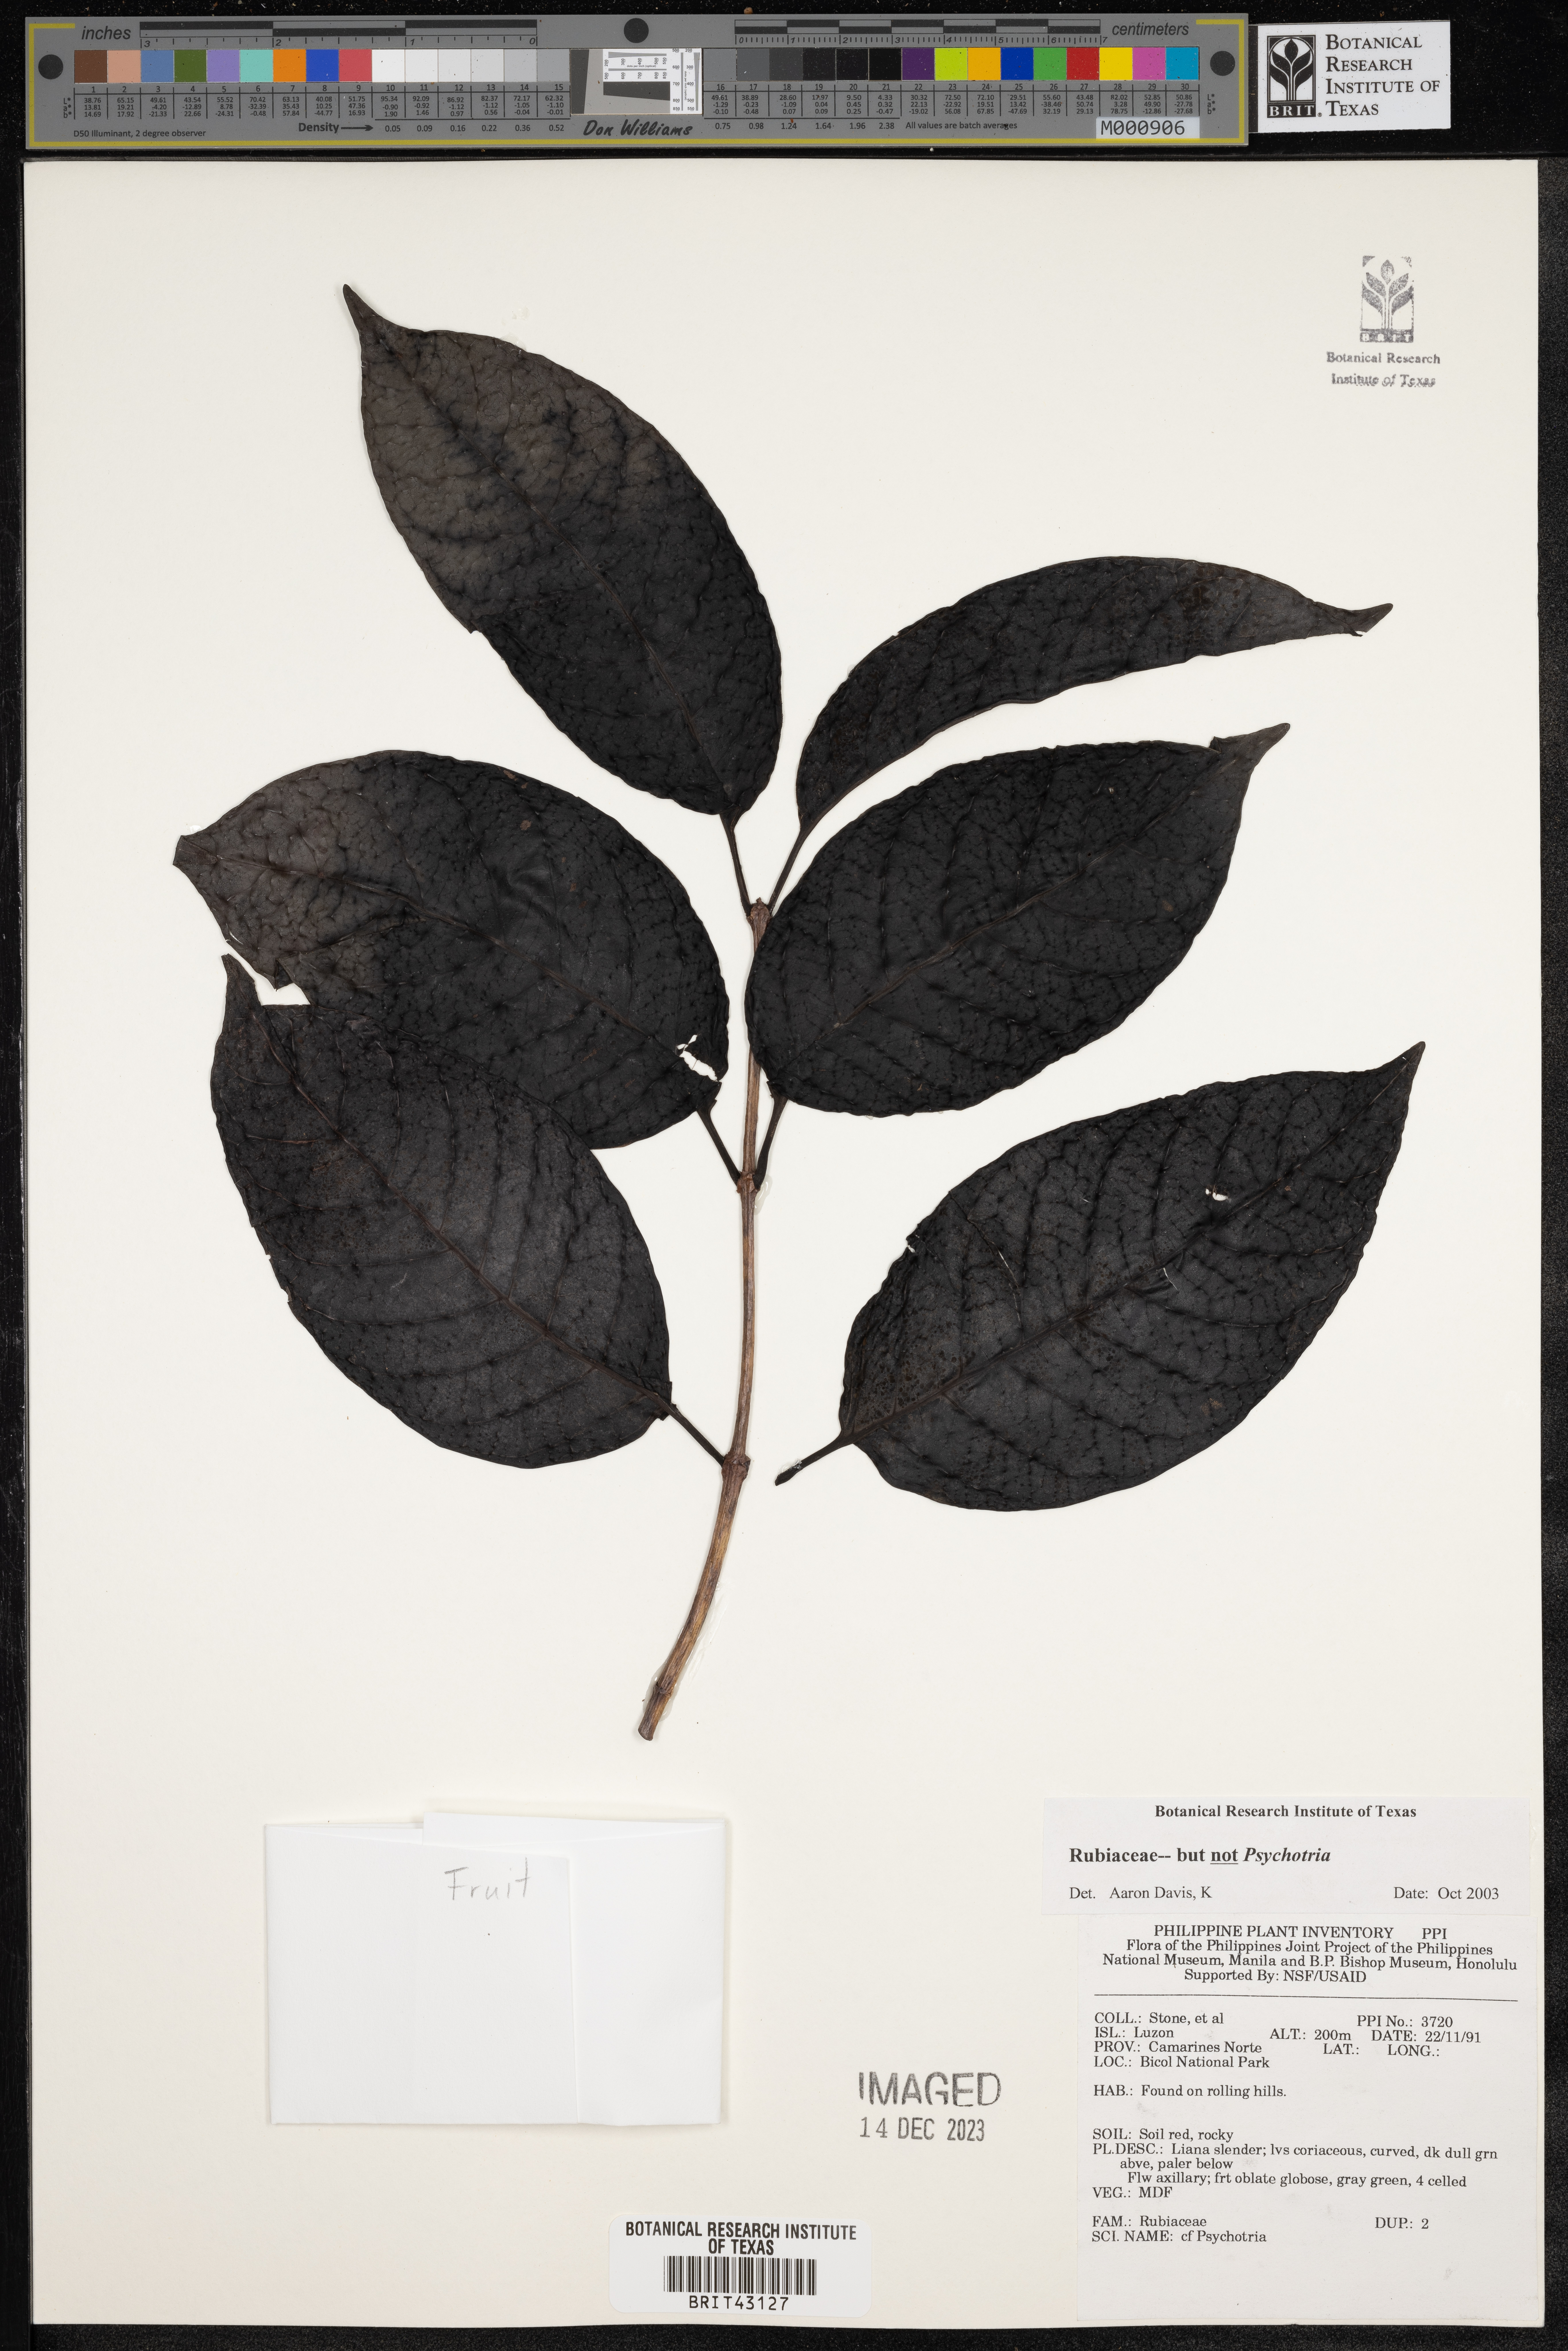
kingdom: Plantae
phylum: Tracheophyta
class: Magnoliopsida
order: Gentianales
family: Rubiaceae
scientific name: Rubiaceae
